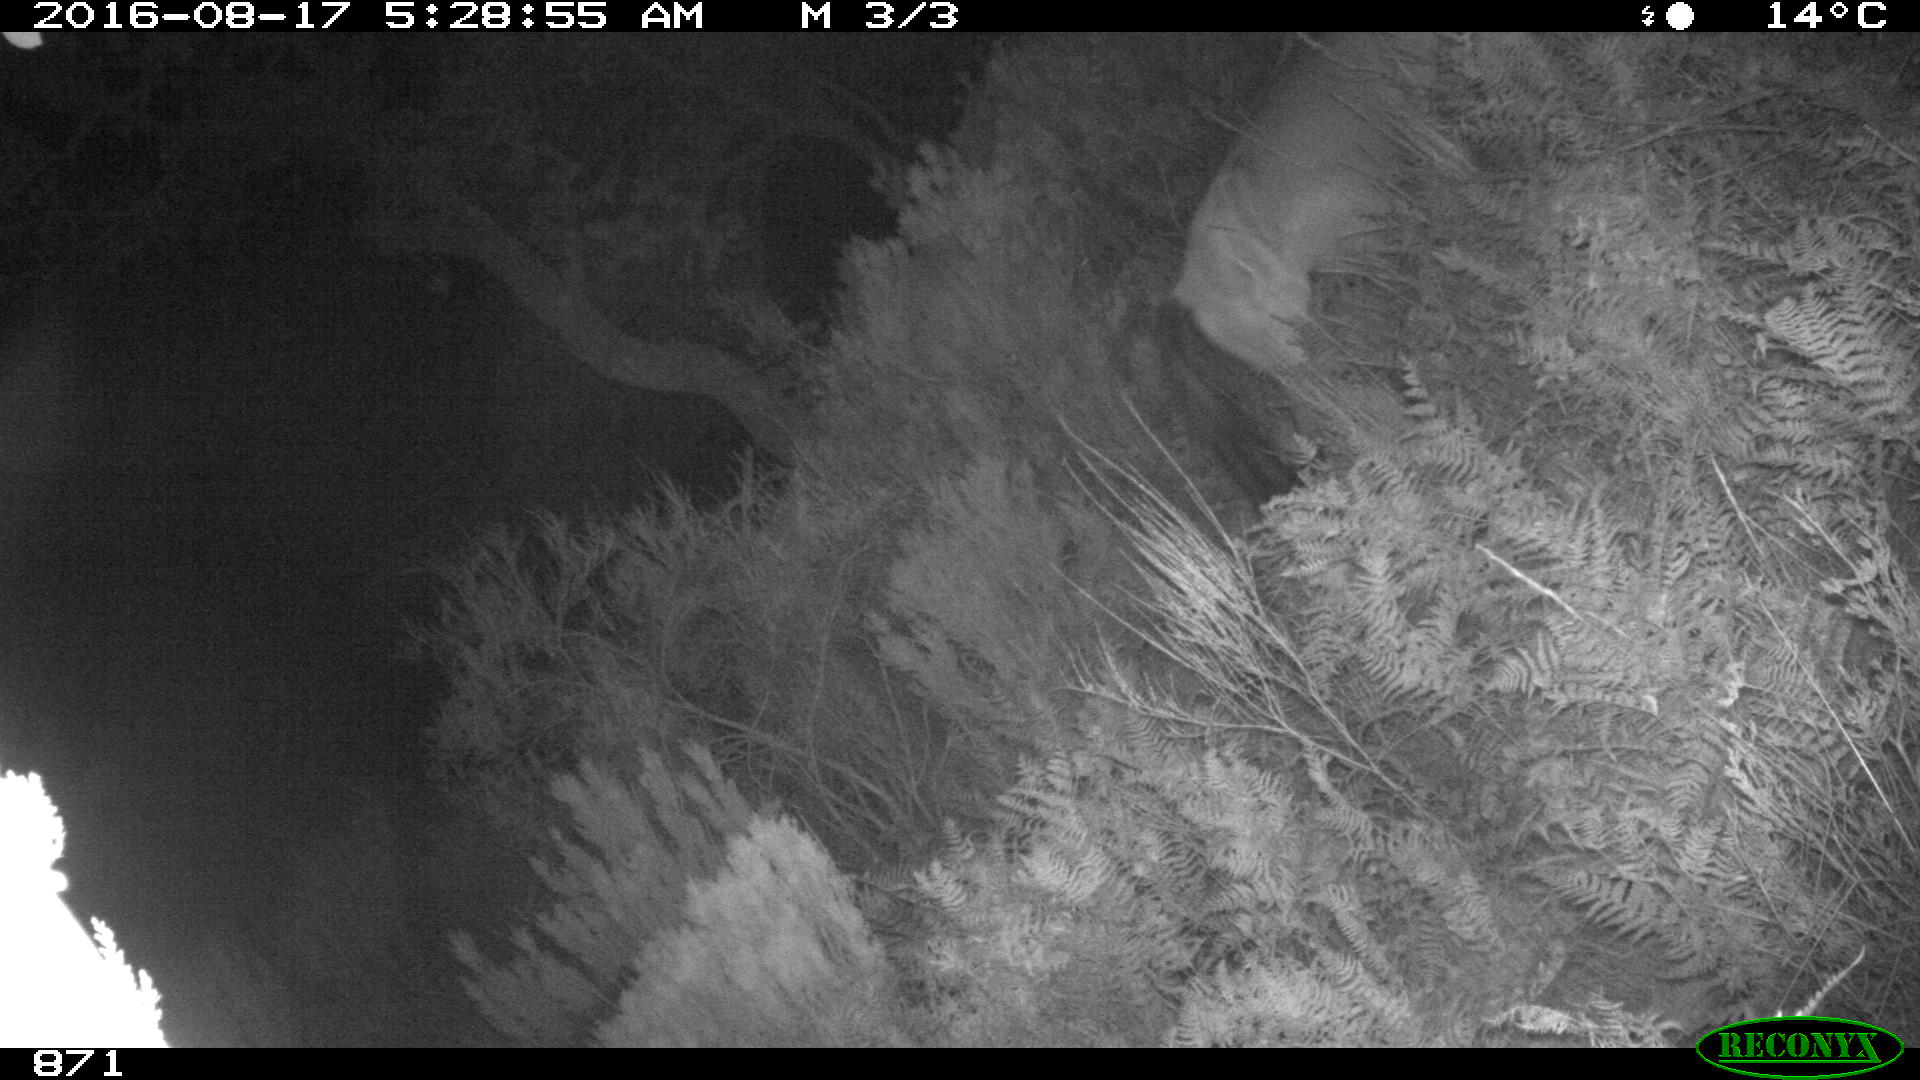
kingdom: Animalia
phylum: Chordata
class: Mammalia
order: Perissodactyla
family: Equidae
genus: Equus
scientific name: Equus caballus
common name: Horse
